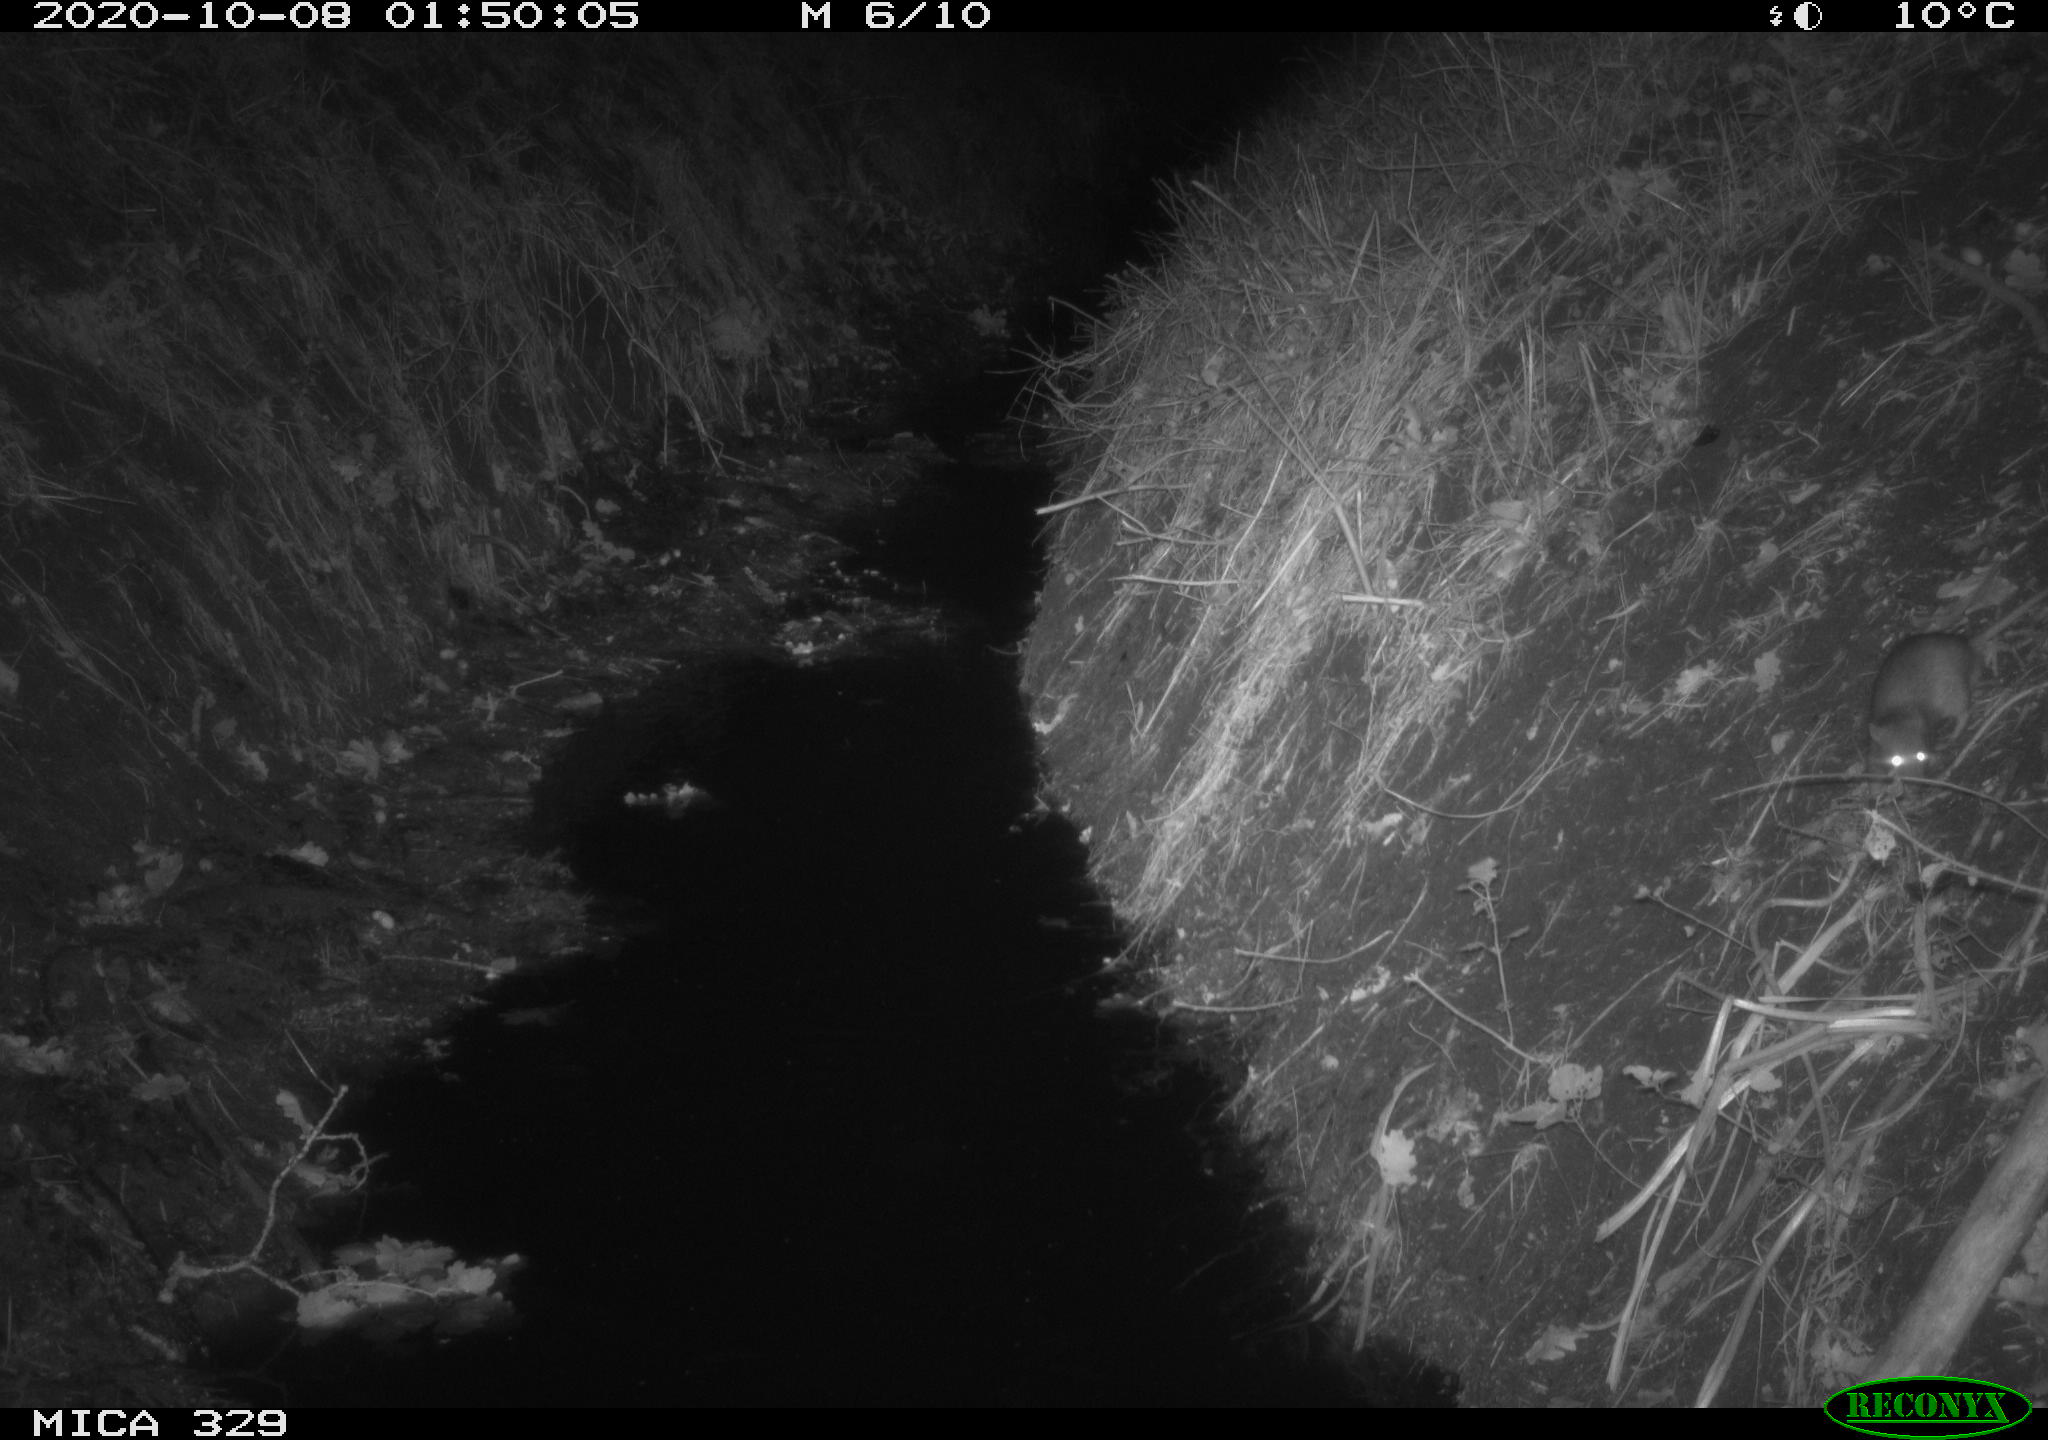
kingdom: Animalia
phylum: Chordata
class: Mammalia
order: Rodentia
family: Muridae
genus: Rattus
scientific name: Rattus norvegicus
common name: Brown rat
